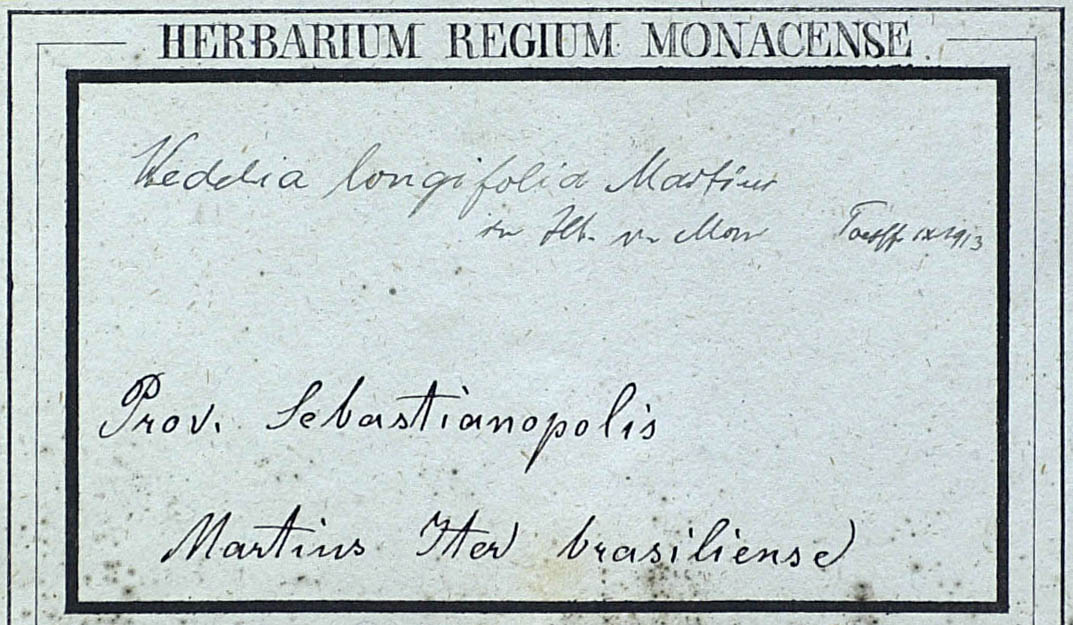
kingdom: Plantae
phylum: Tracheophyta
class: Magnoliopsida
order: Asterales
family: Asteraceae
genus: Wedelia
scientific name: Wedelia longifolia
